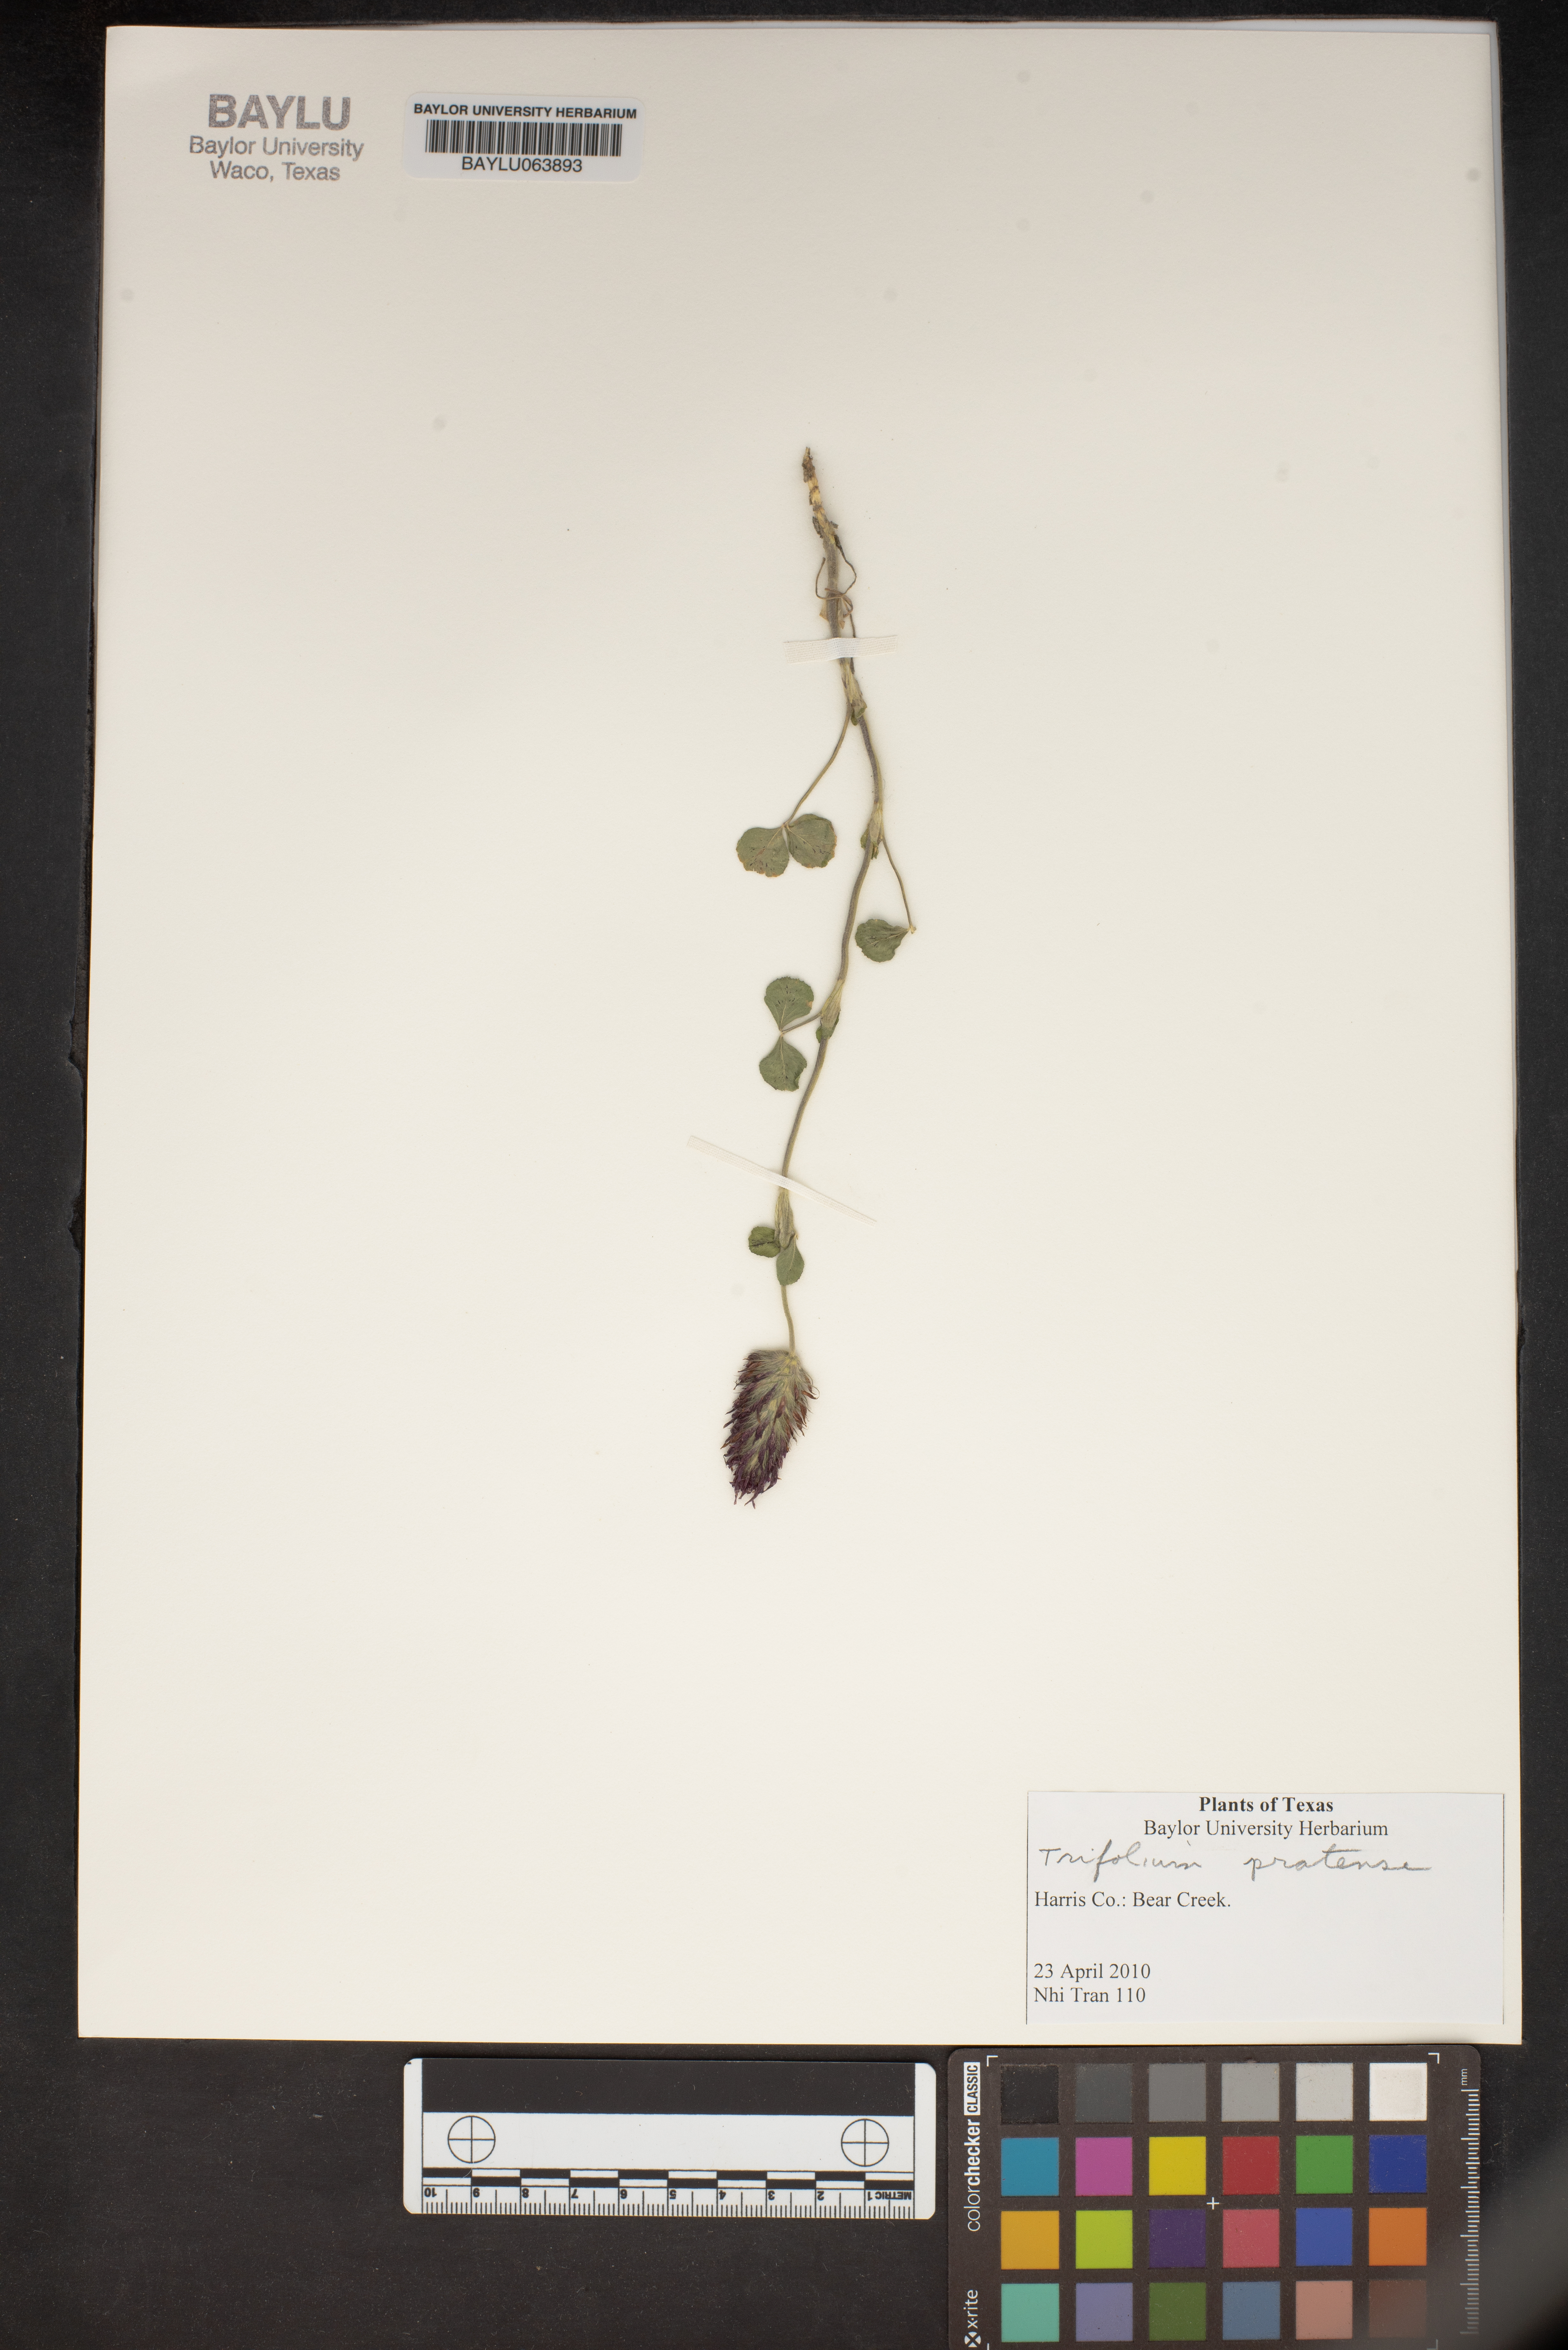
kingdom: Plantae
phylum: Tracheophyta
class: Magnoliopsida
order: Fabales
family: Fabaceae
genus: Trifolium
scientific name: Trifolium pratense
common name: Red clover
